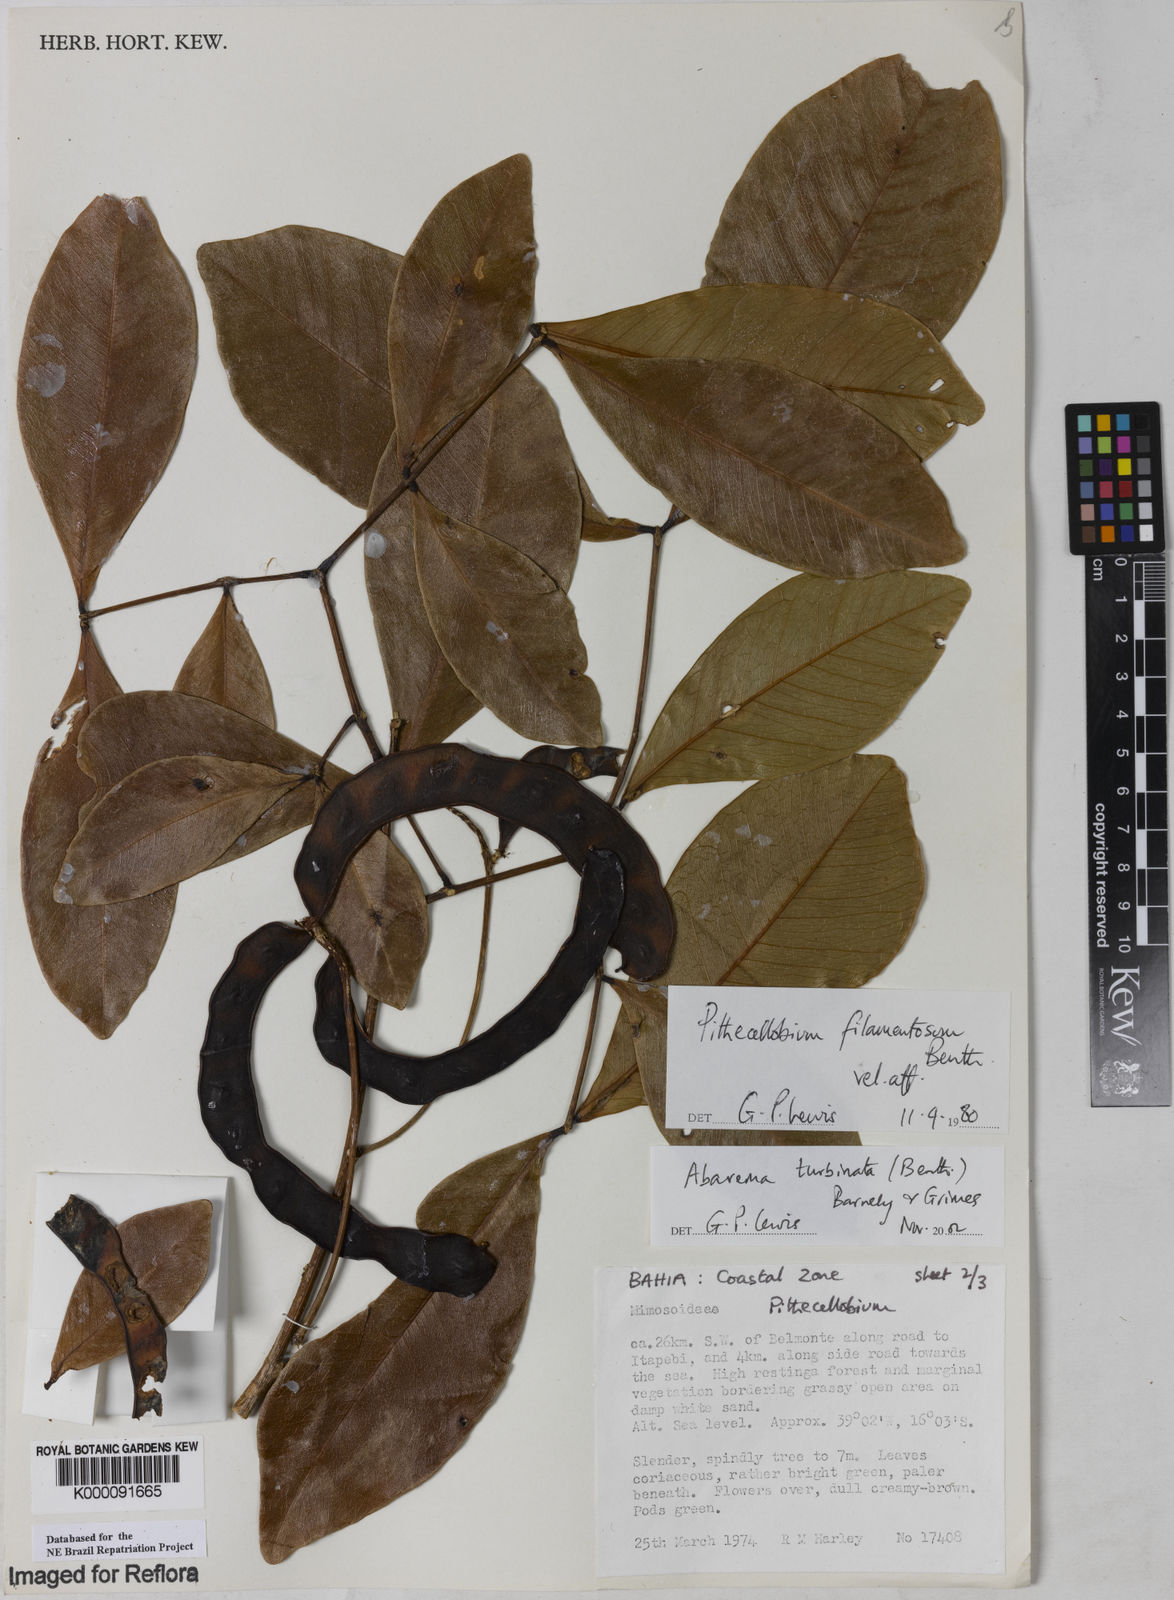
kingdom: Plantae
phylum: Tracheophyta
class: Magnoliopsida
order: Fabales
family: Fabaceae
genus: Jupunba
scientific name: Jupunba turbinata
